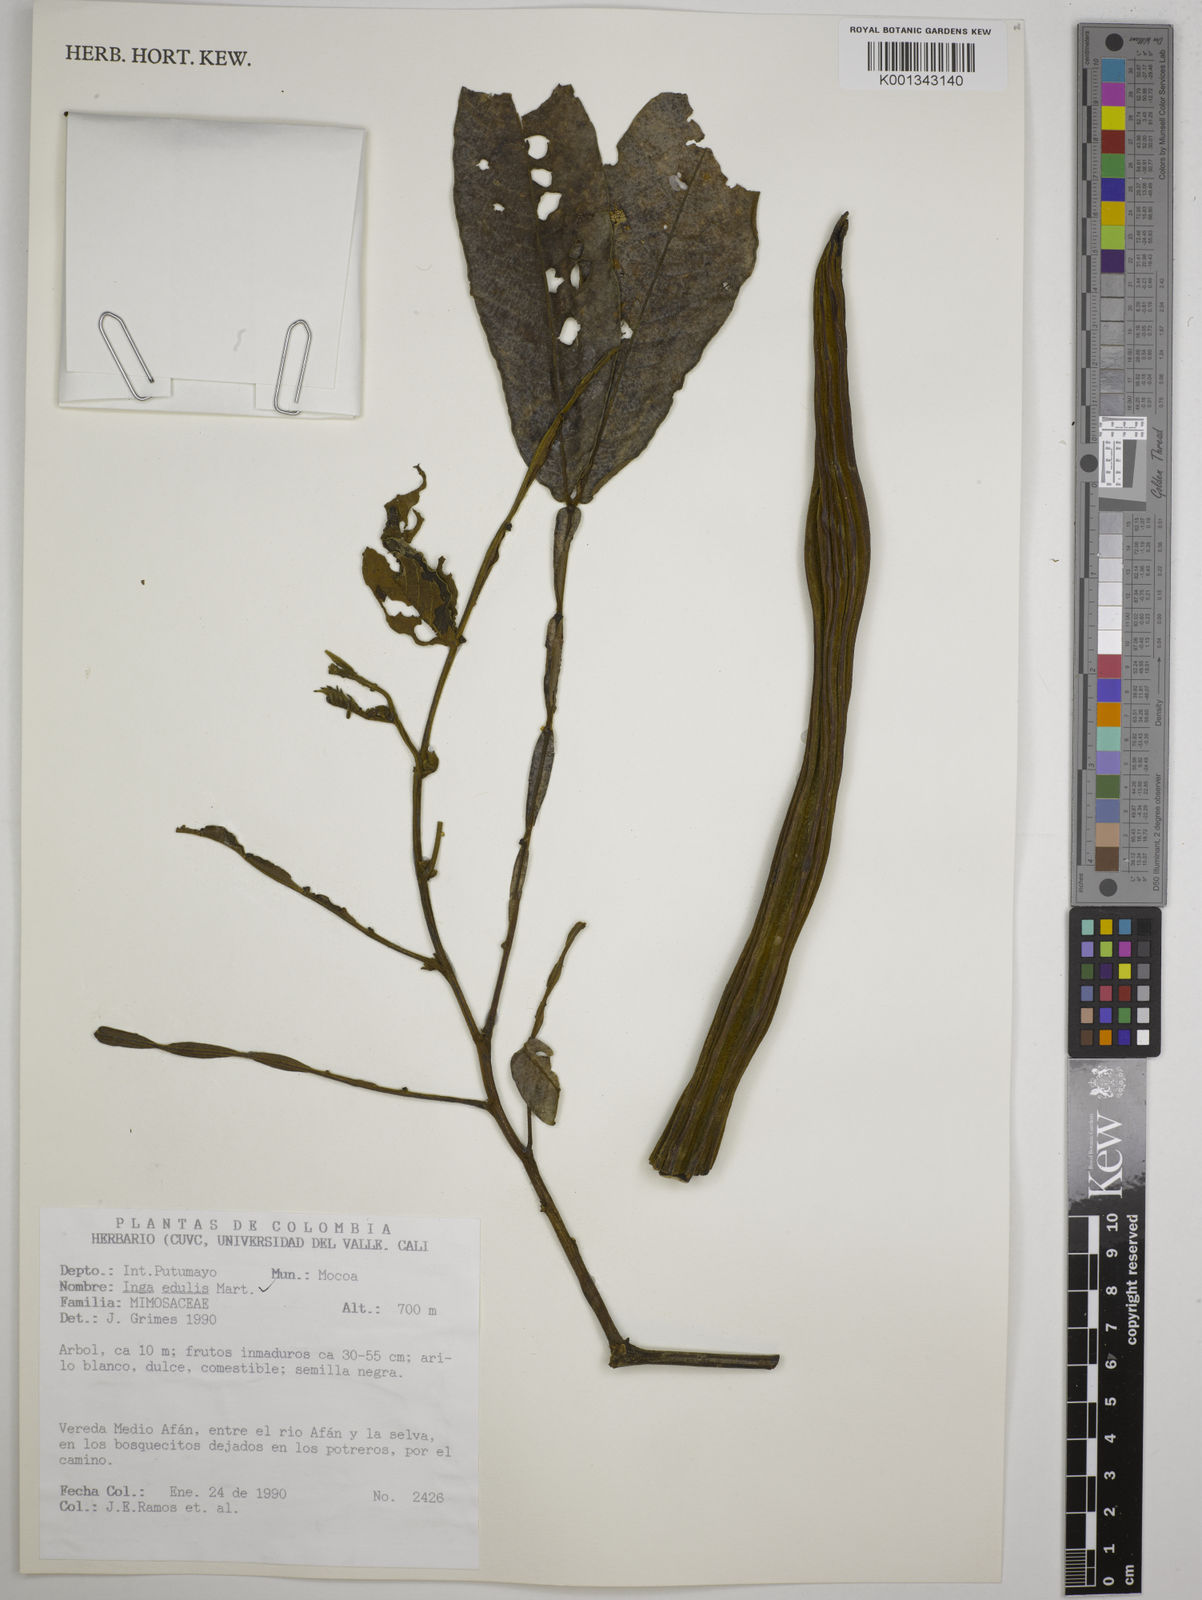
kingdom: Plantae
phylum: Tracheophyta
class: Magnoliopsida
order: Fabales
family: Fabaceae
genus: Inga
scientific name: Inga edulis
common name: Ice cream bean
